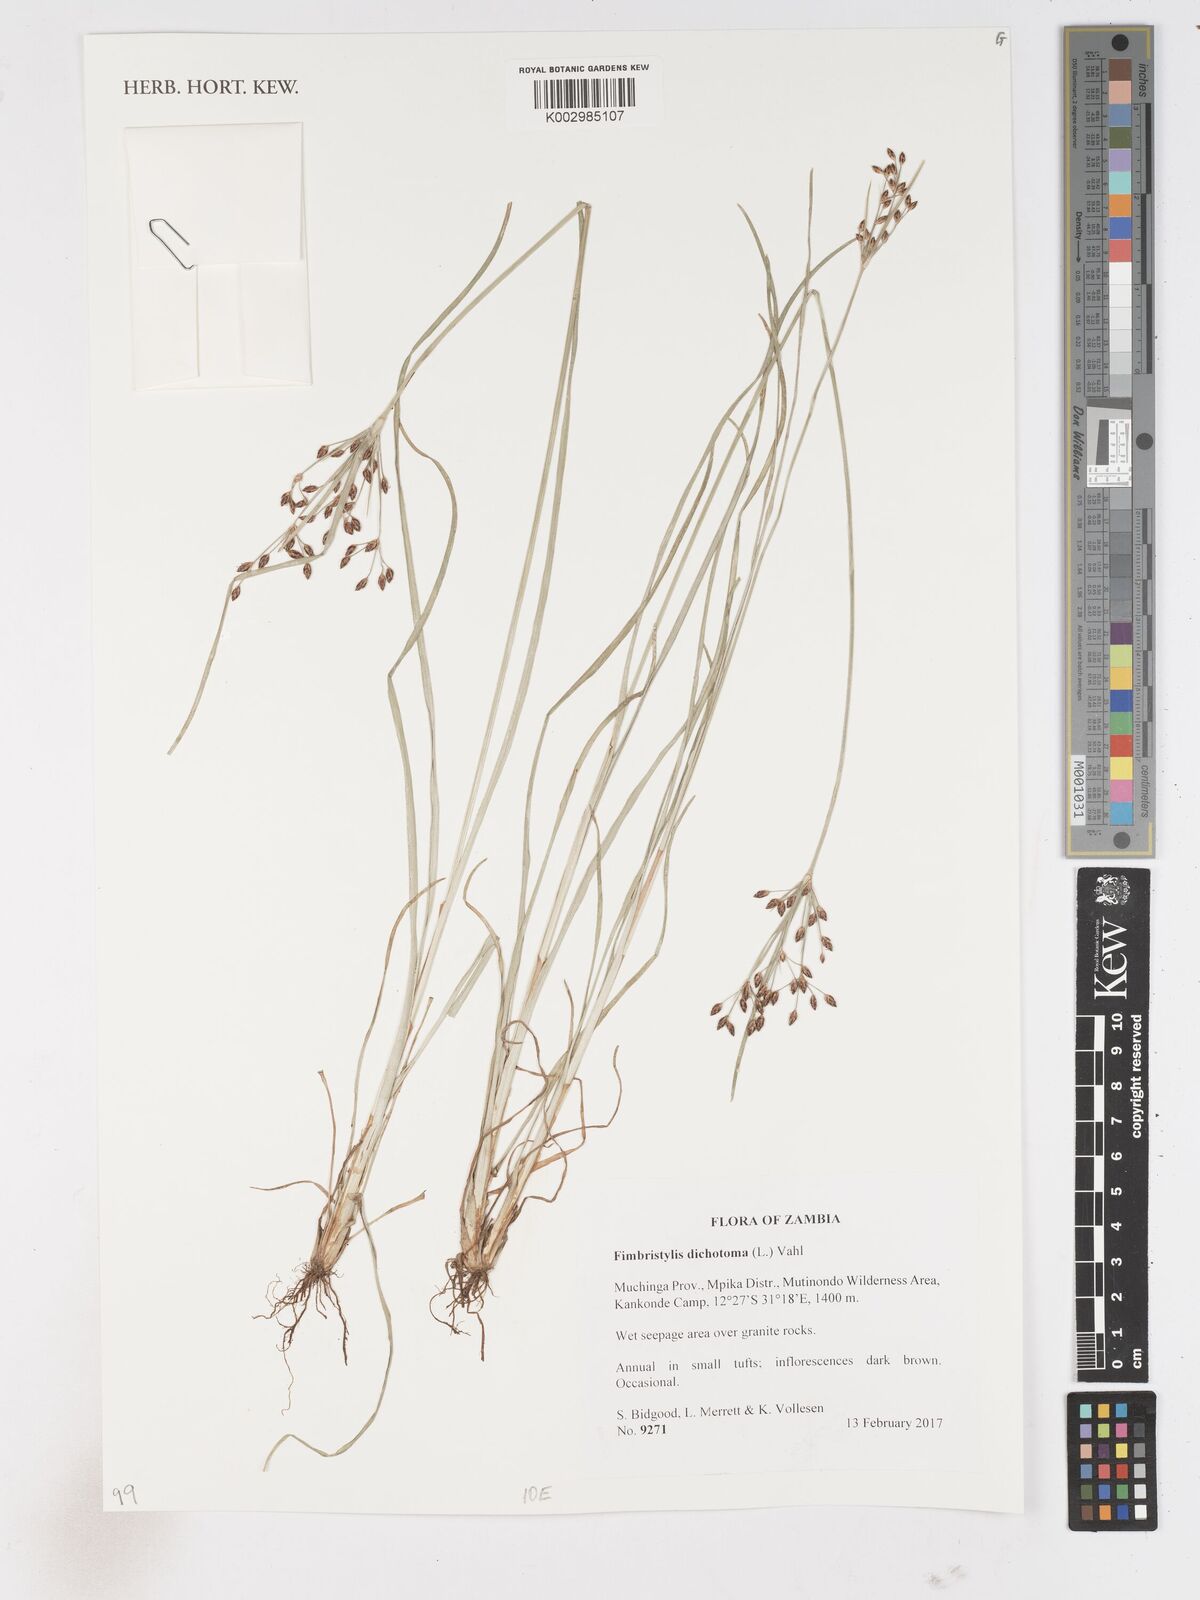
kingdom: Plantae
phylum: Tracheophyta
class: Liliopsida
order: Poales
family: Cyperaceae
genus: Fimbristylis
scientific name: Fimbristylis dichotoma
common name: Forked fimbry
